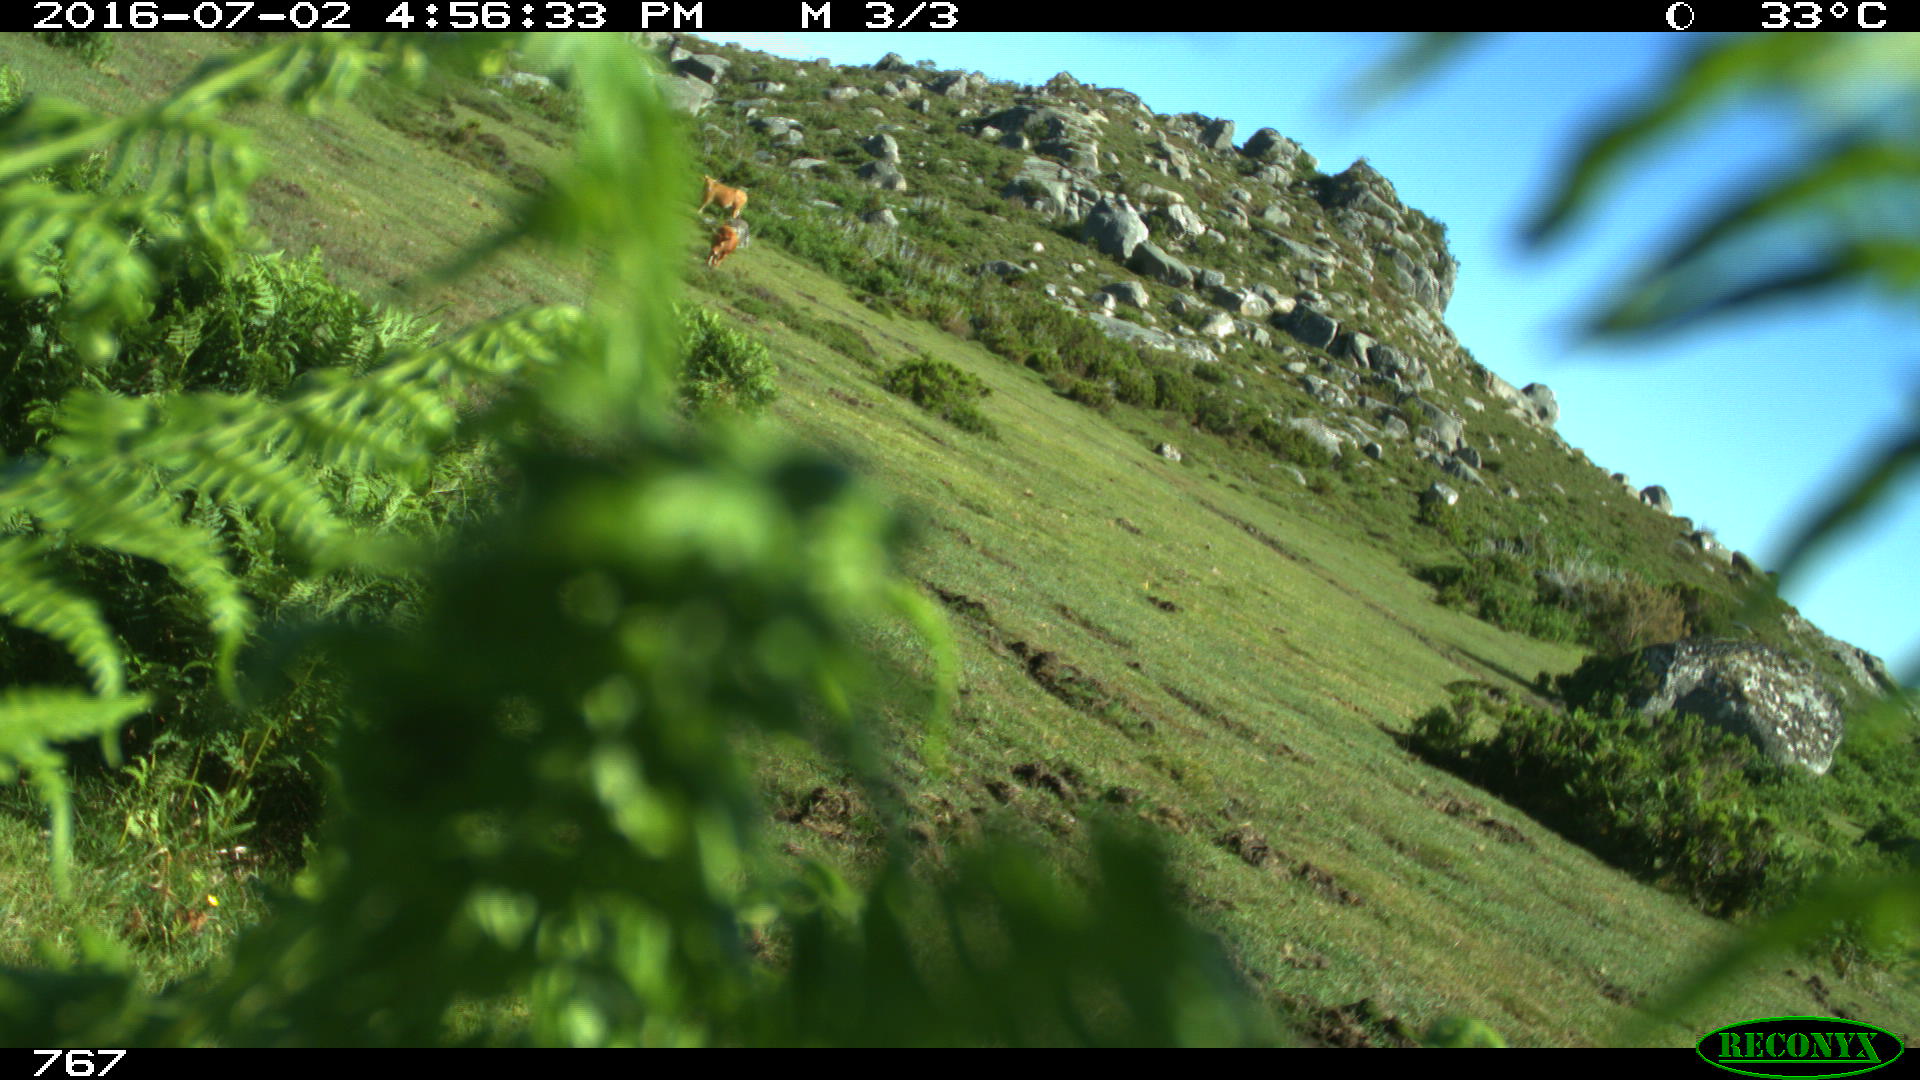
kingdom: Animalia
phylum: Chordata
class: Mammalia
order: Artiodactyla
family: Bovidae
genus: Bos
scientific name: Bos taurus
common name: Domesticated cattle
